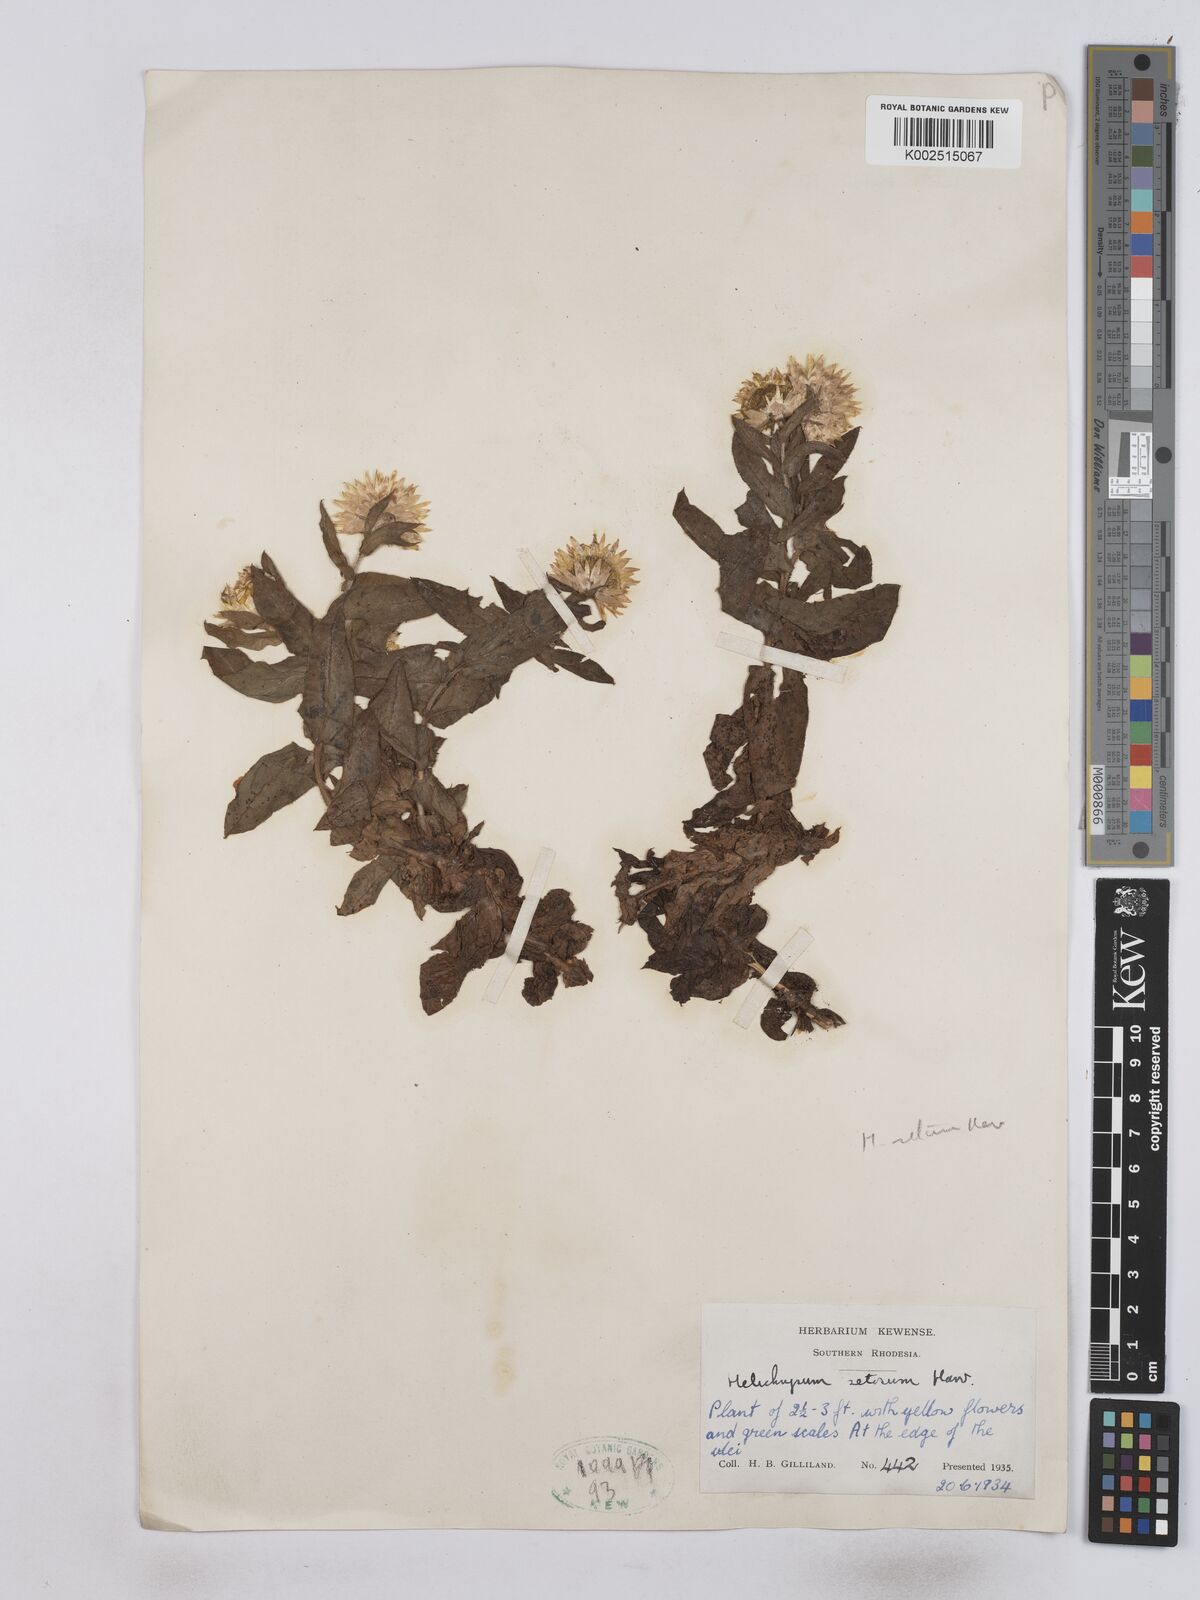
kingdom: Plantae
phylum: Tracheophyta
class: Magnoliopsida
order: Asterales
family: Asteraceae
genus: Helichrysum
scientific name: Helichrysum setosum
